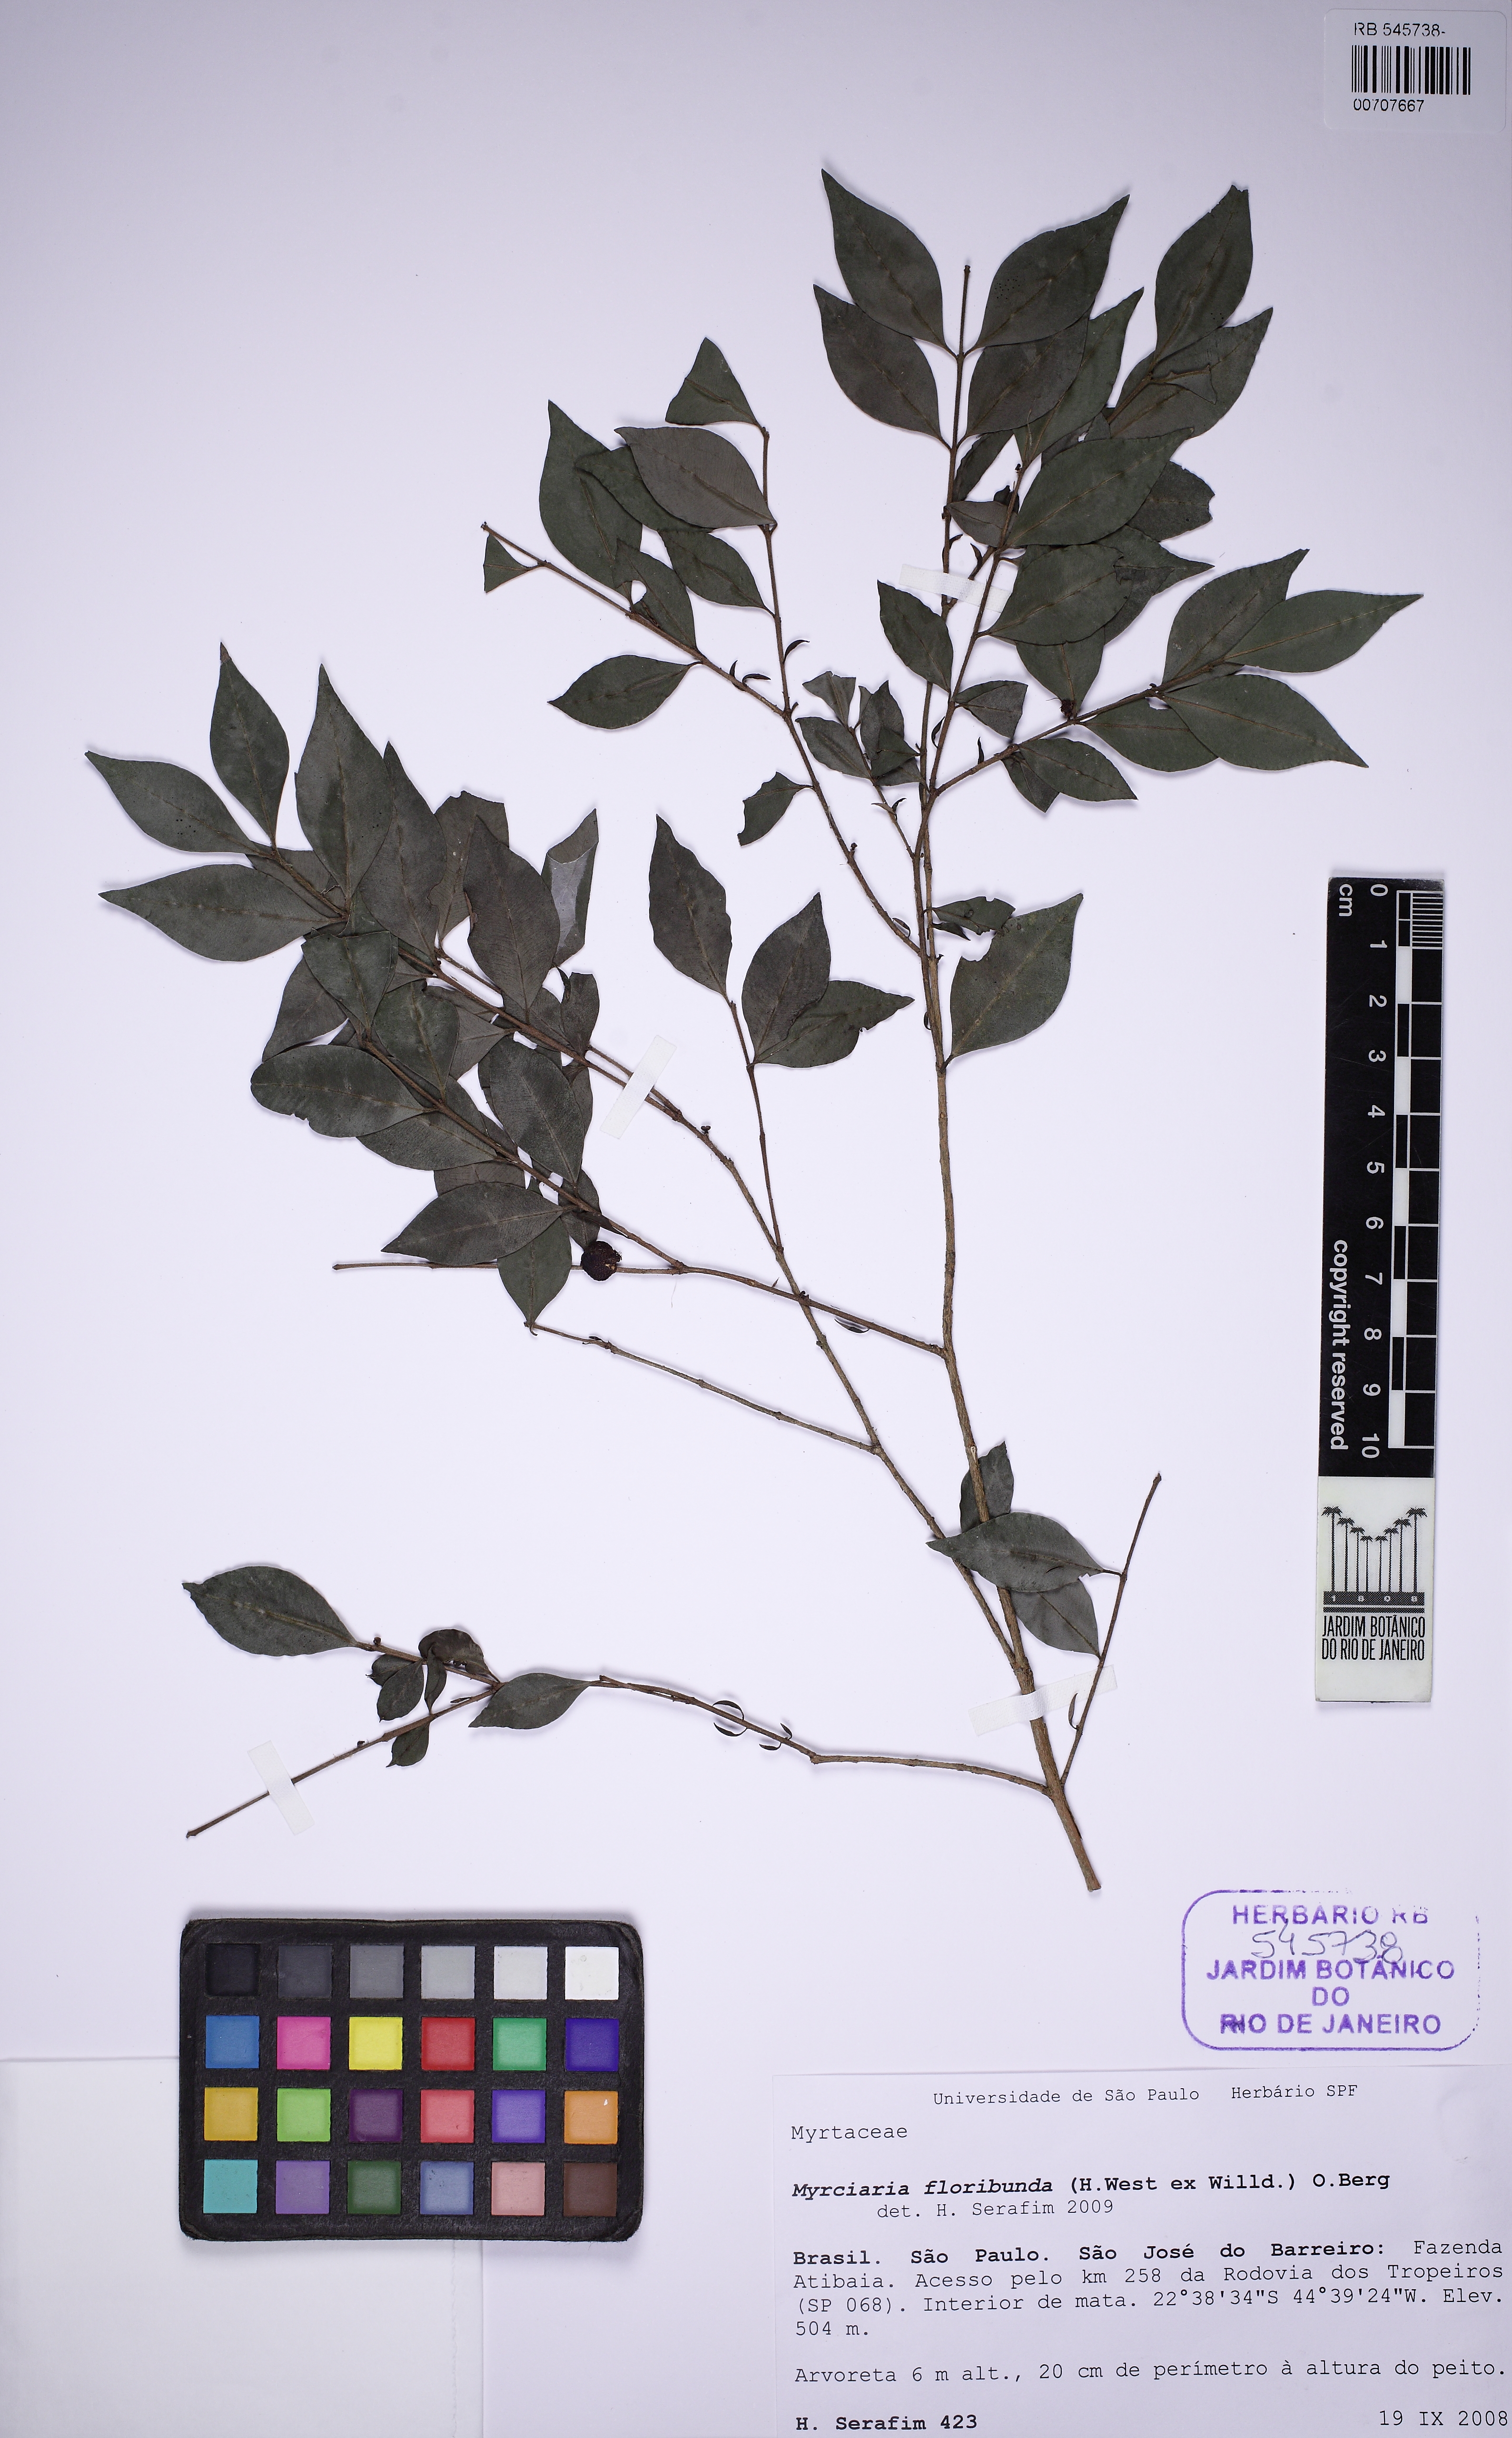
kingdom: Plantae
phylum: Tracheophyta
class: Magnoliopsida
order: Myrtales
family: Myrtaceae
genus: Myrciaria
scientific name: Myrciaria floribunda
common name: Guavaberry
